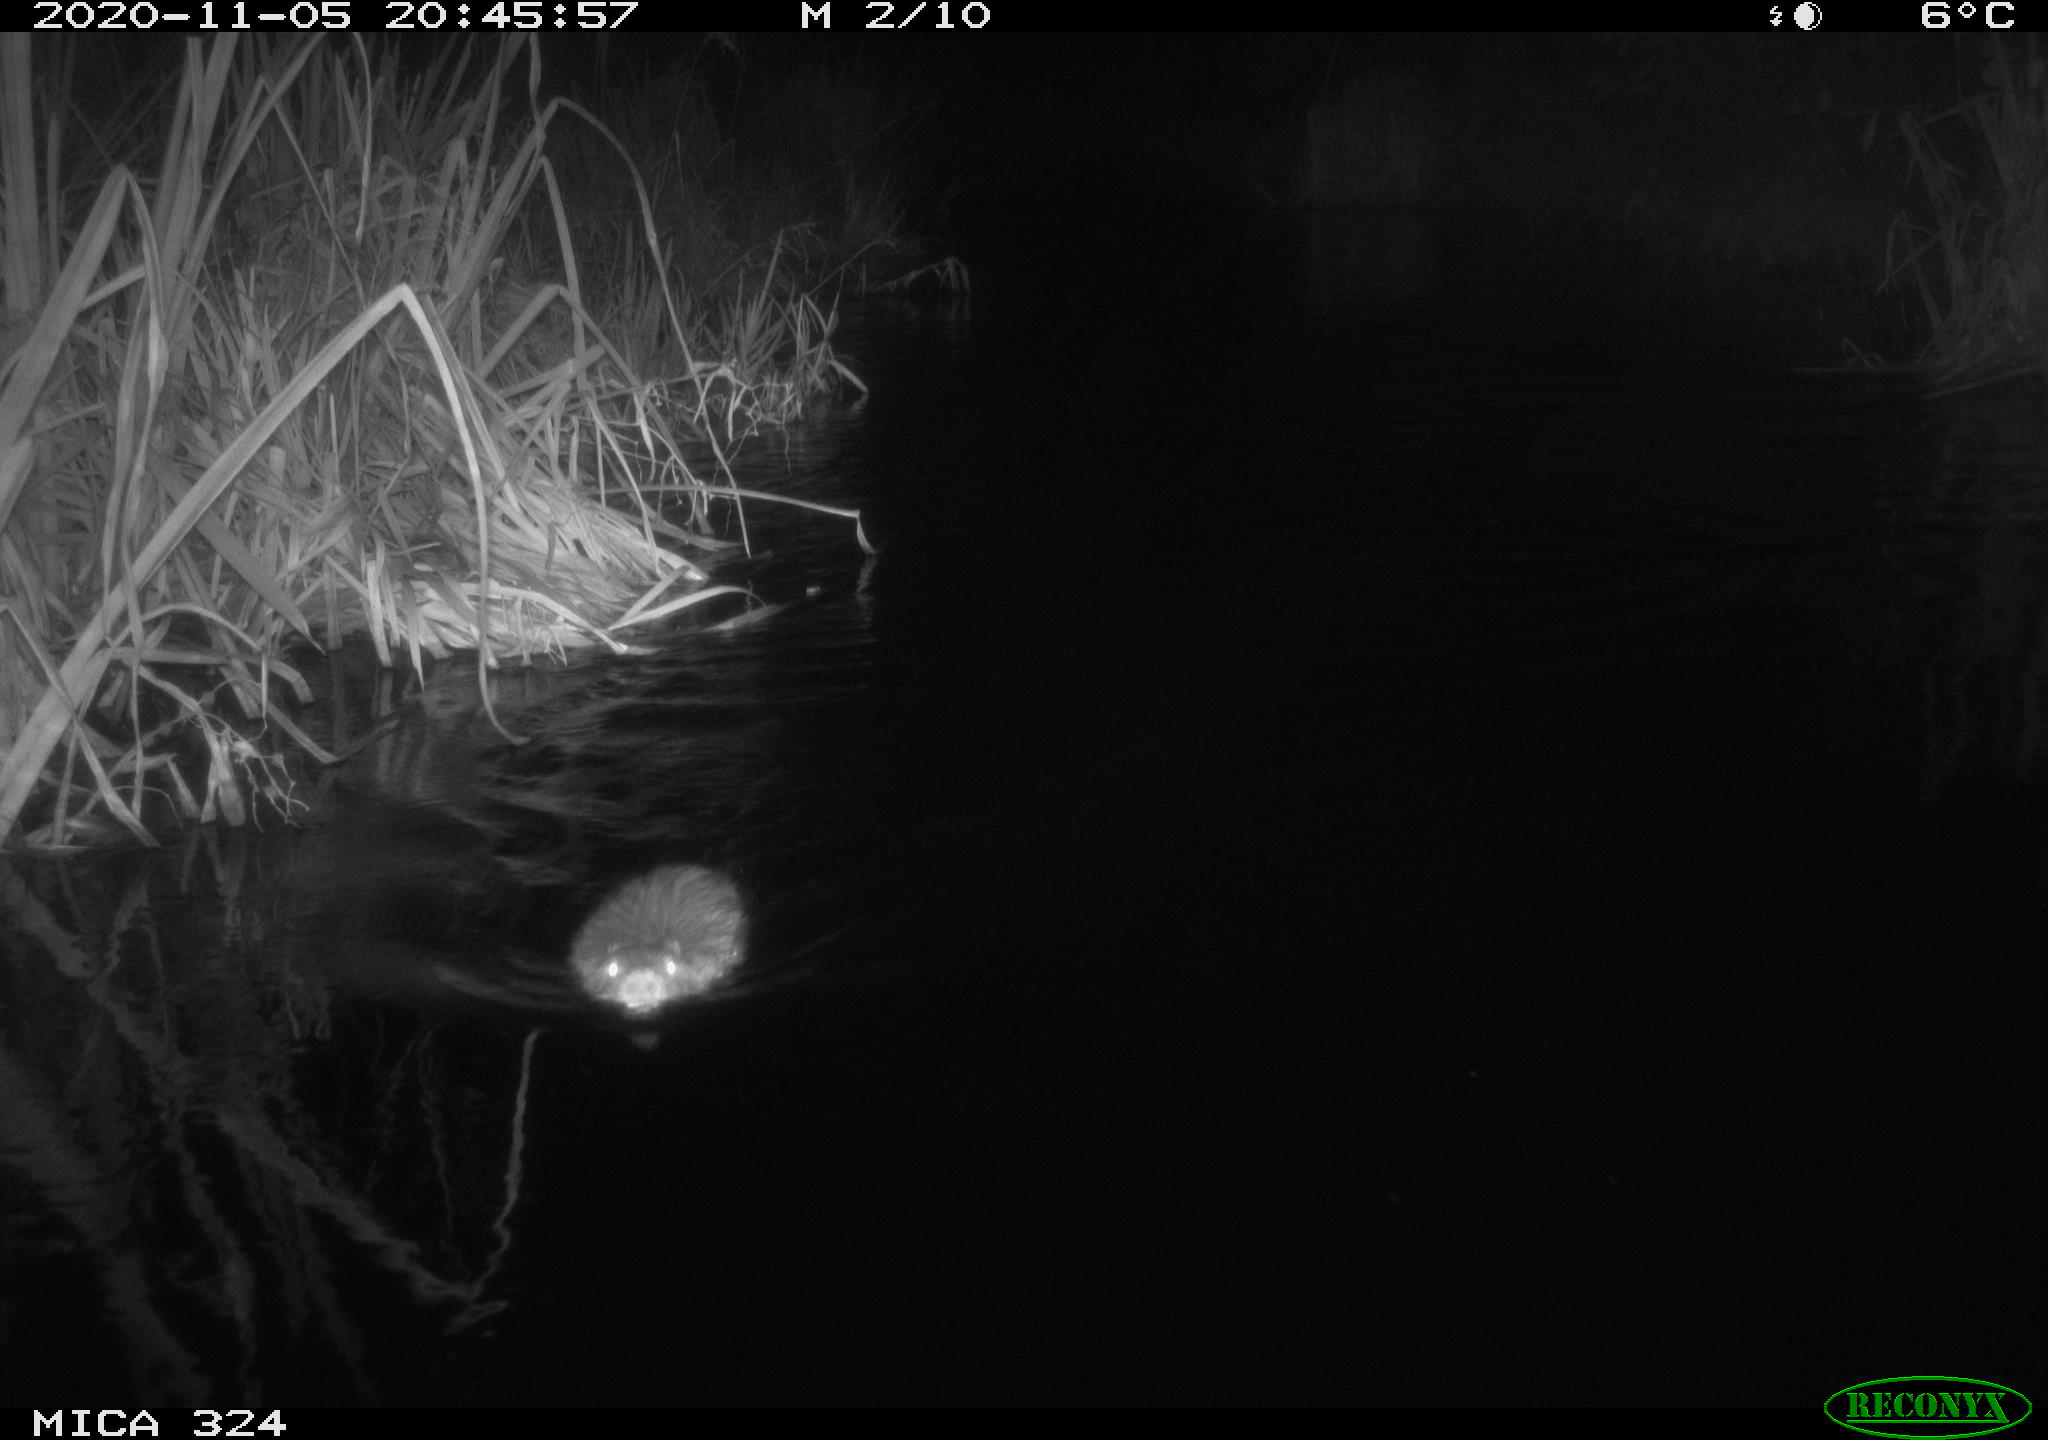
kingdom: Animalia
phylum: Chordata
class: Mammalia
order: Rodentia
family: Myocastoridae
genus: Myocastor
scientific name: Myocastor coypus
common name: Coypu
